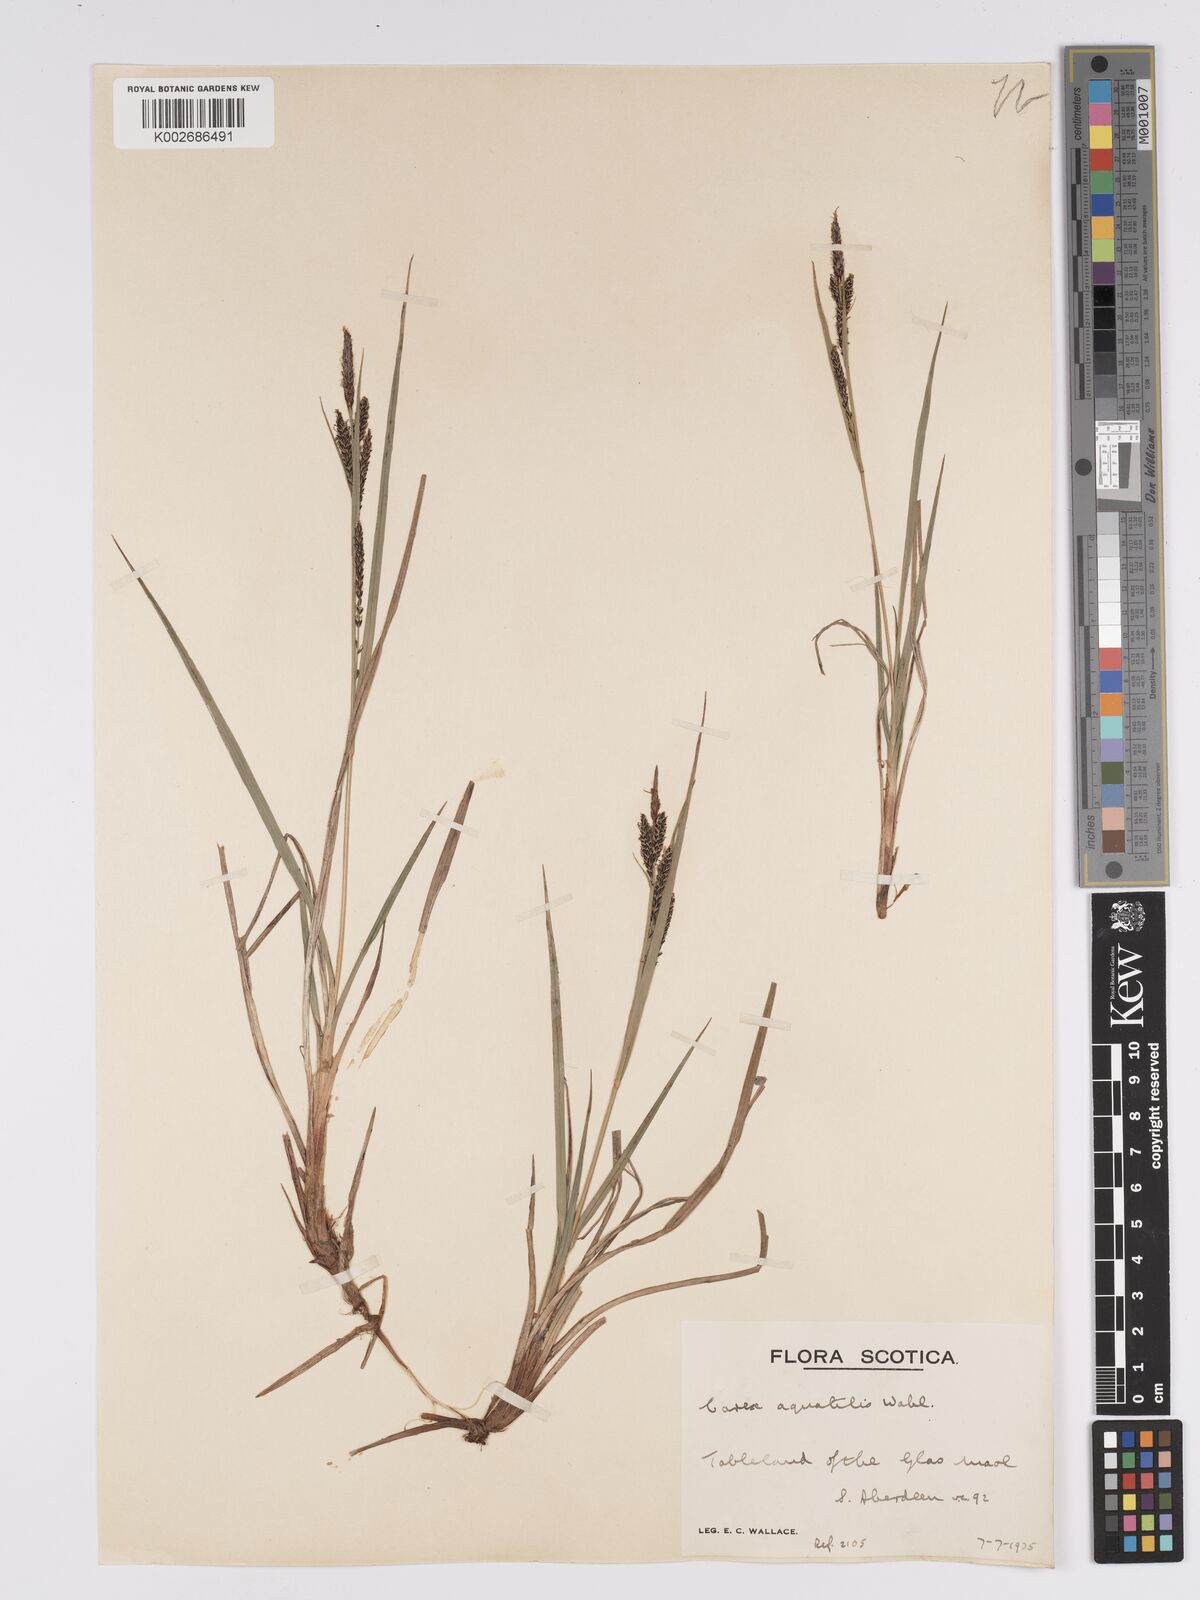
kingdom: Plantae
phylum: Tracheophyta
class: Liliopsida
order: Poales
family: Cyperaceae
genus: Carex
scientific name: Carex aquatilis
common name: Water sedge
